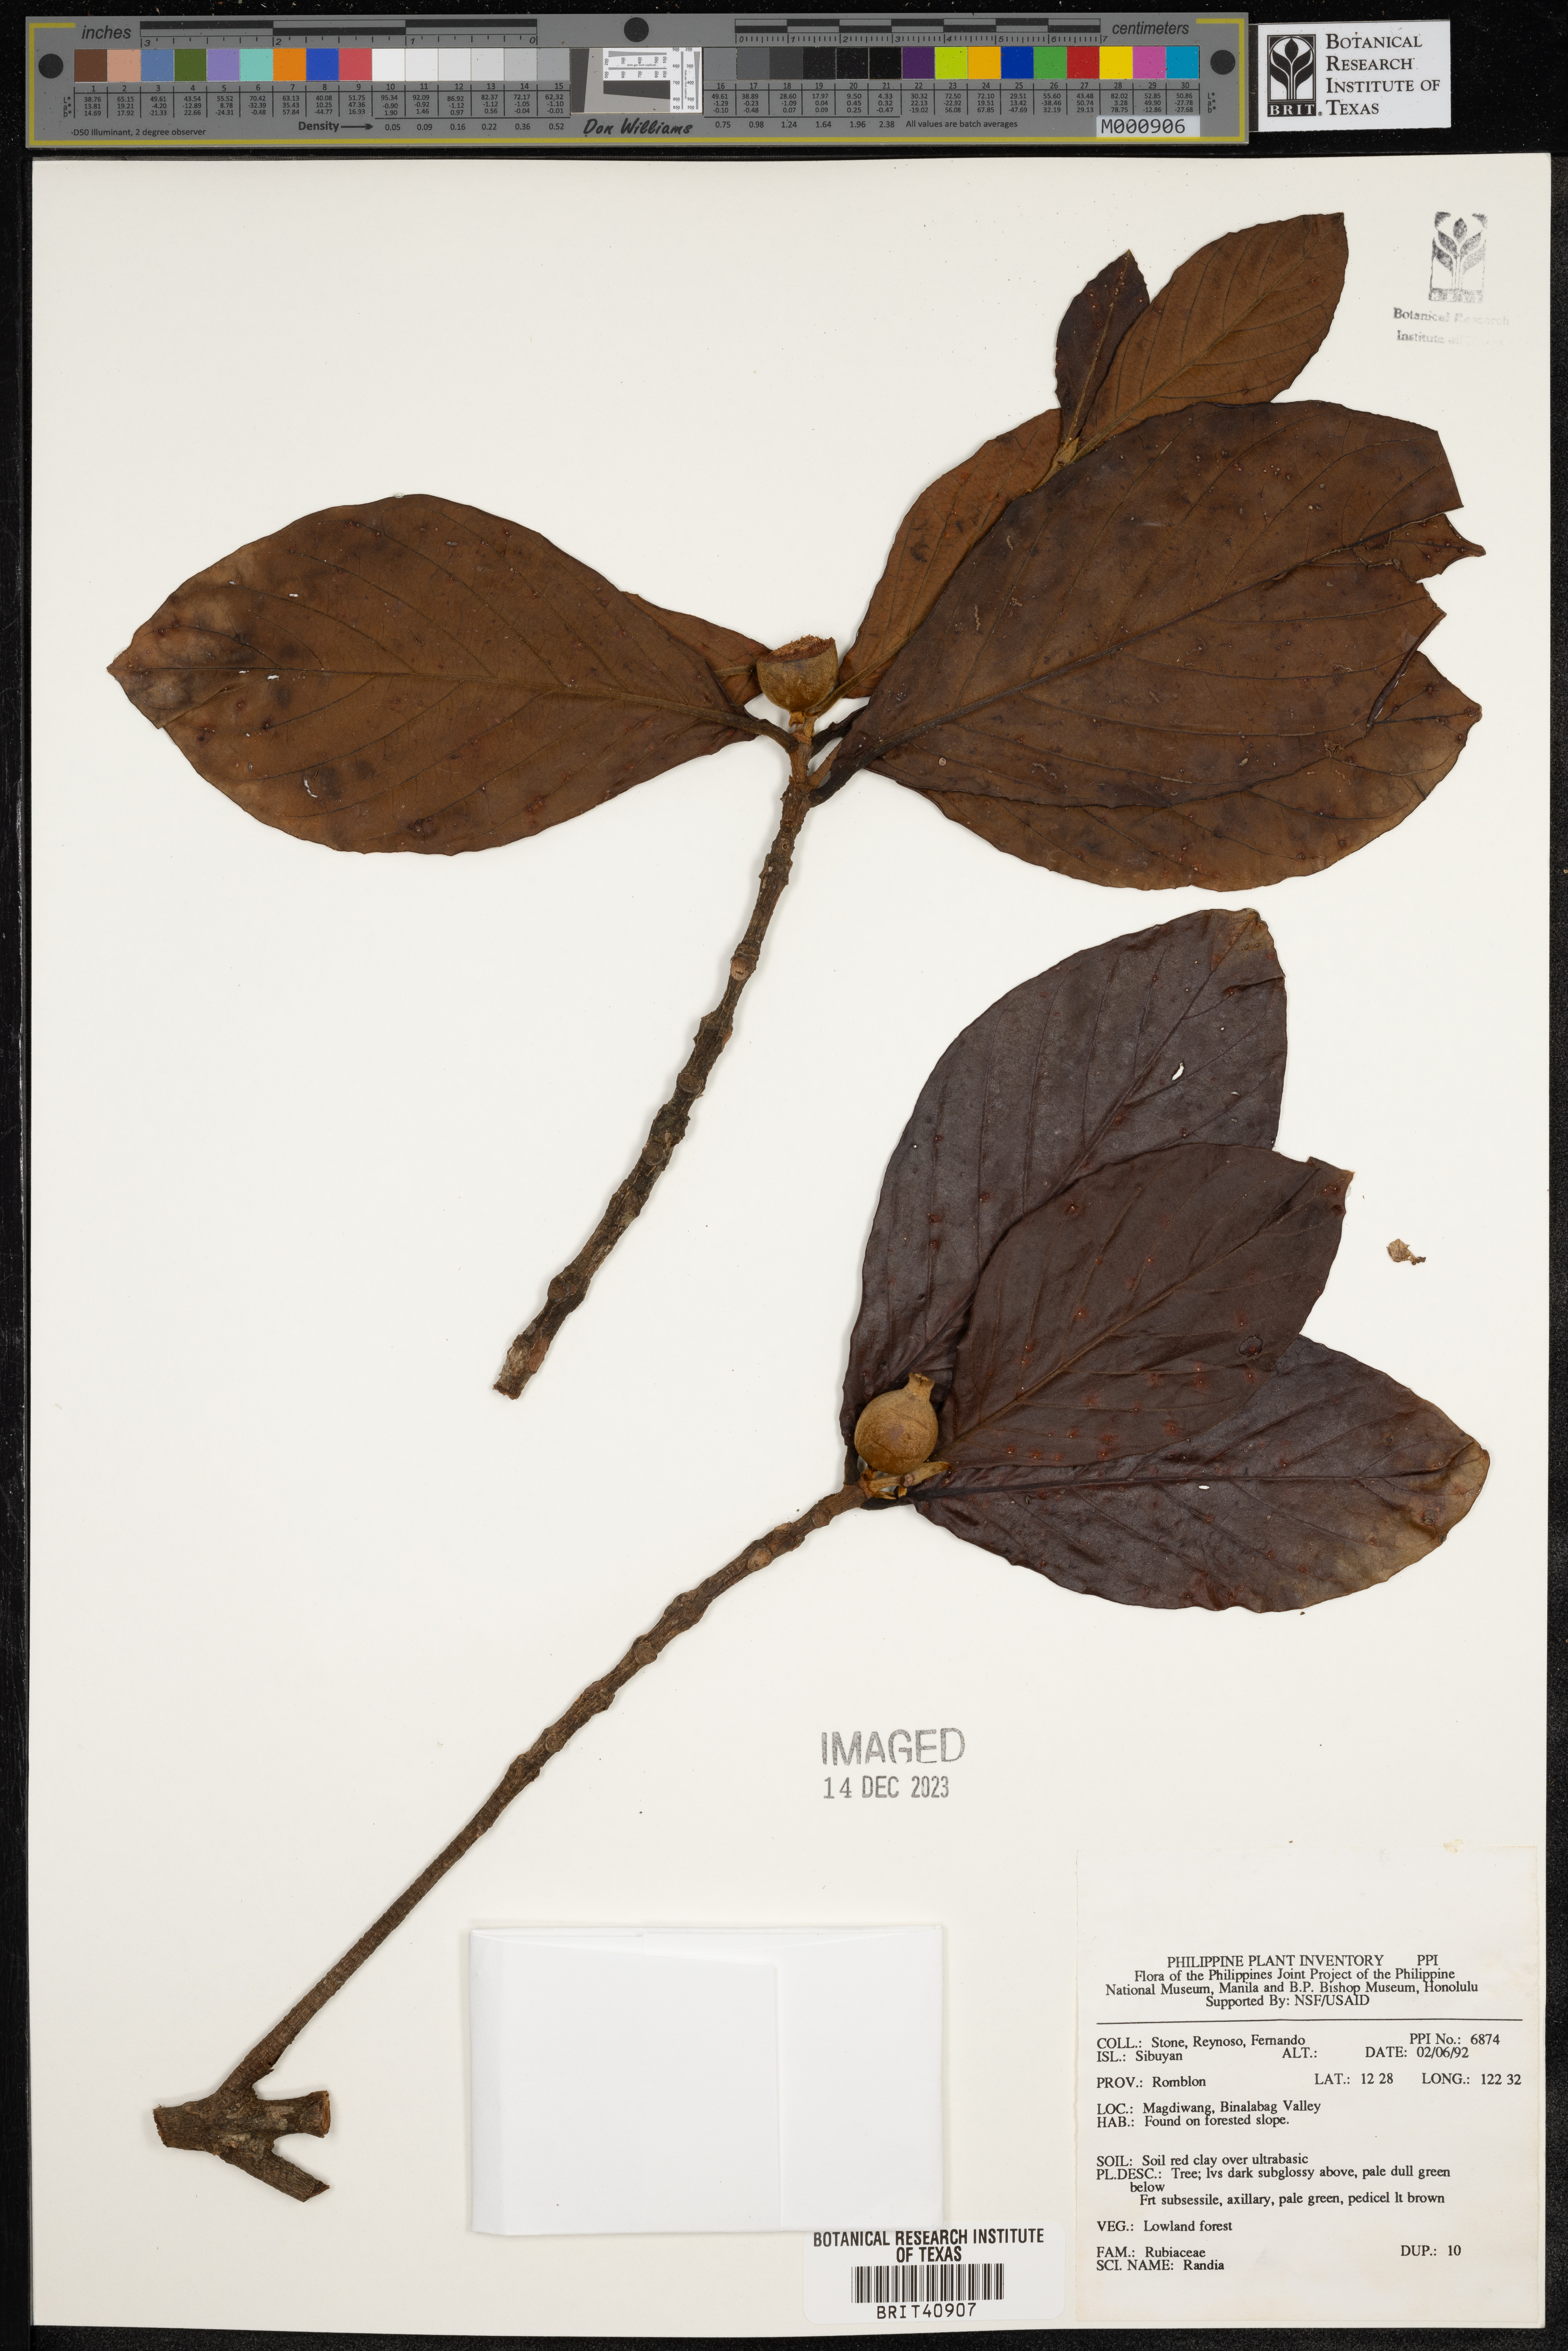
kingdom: Plantae
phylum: Tracheophyta
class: Magnoliopsida
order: Gentianales
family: Rubiaceae
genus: Randia
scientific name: Randia
